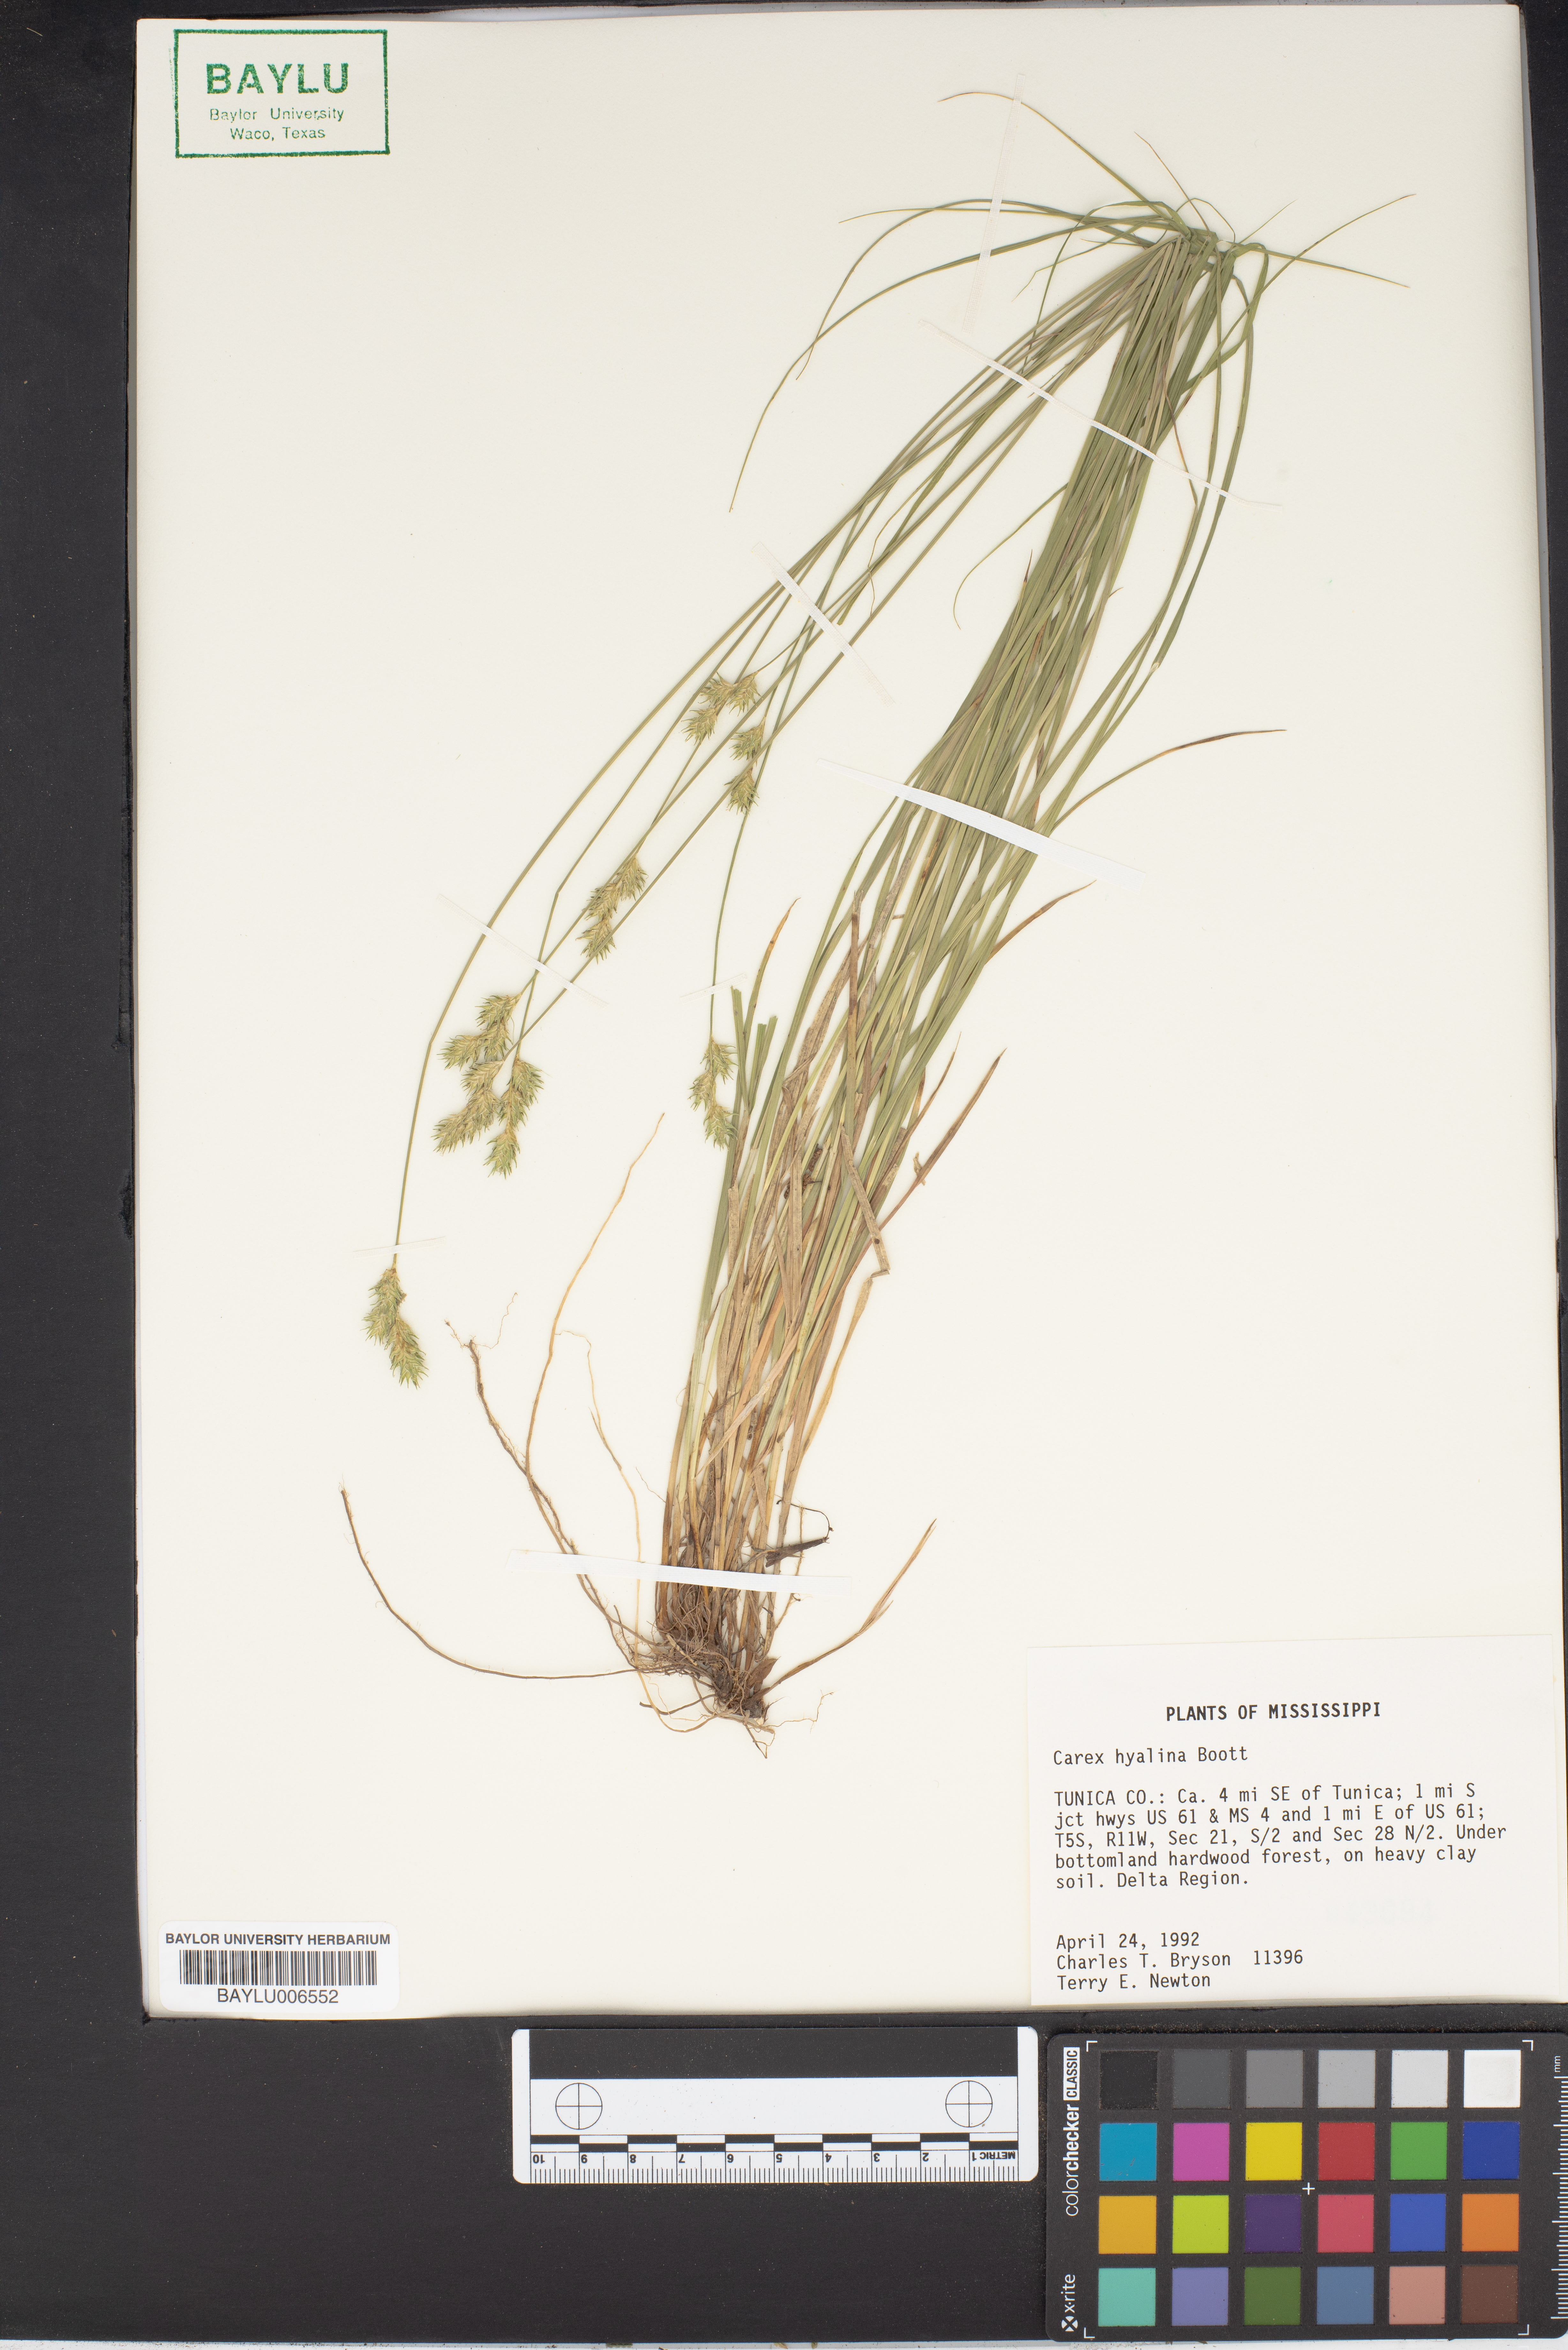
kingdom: Plantae
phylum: Tracheophyta
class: Liliopsida
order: Poales
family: Cyperaceae
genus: Carex
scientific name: Carex hyalina
